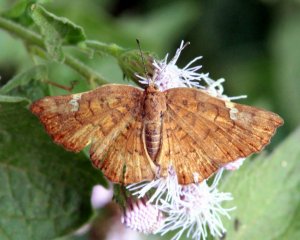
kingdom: Animalia
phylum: Arthropoda
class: Insecta
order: Lepidoptera
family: Lycaenidae
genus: Emesis
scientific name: Emesis emesia
